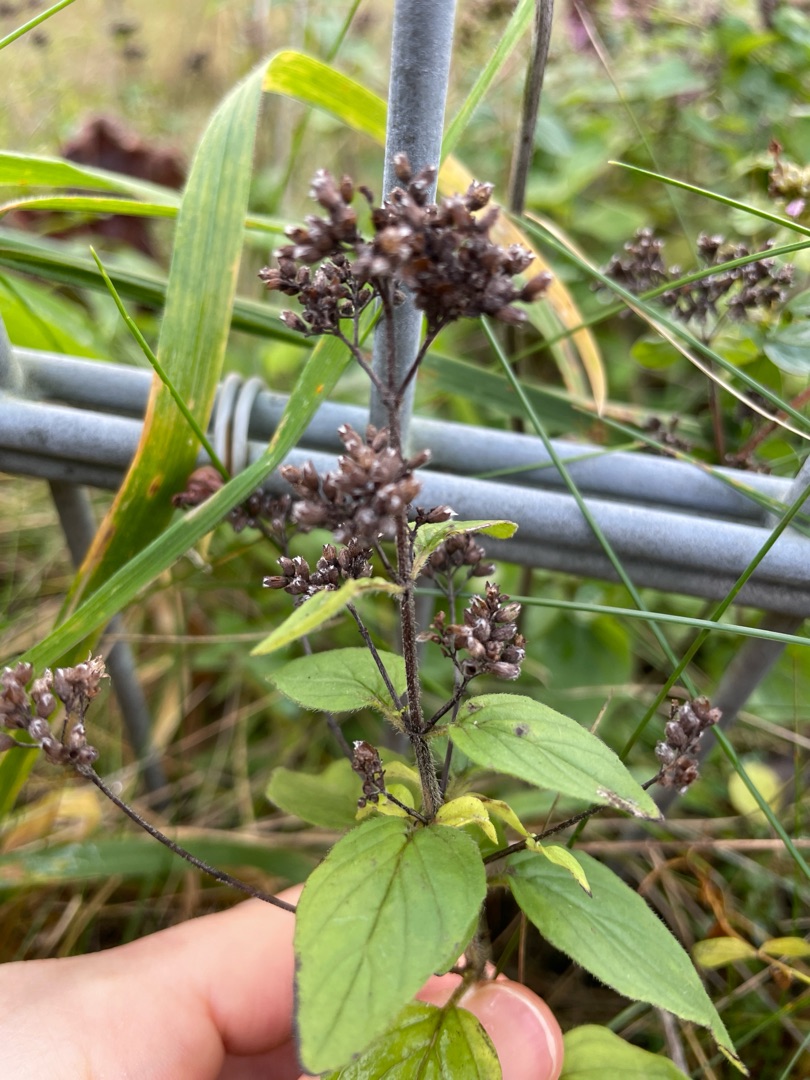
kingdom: Plantae
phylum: Tracheophyta
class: Magnoliopsida
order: Lamiales
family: Lamiaceae
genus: Origanum
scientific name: Origanum vulgare
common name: Merian
